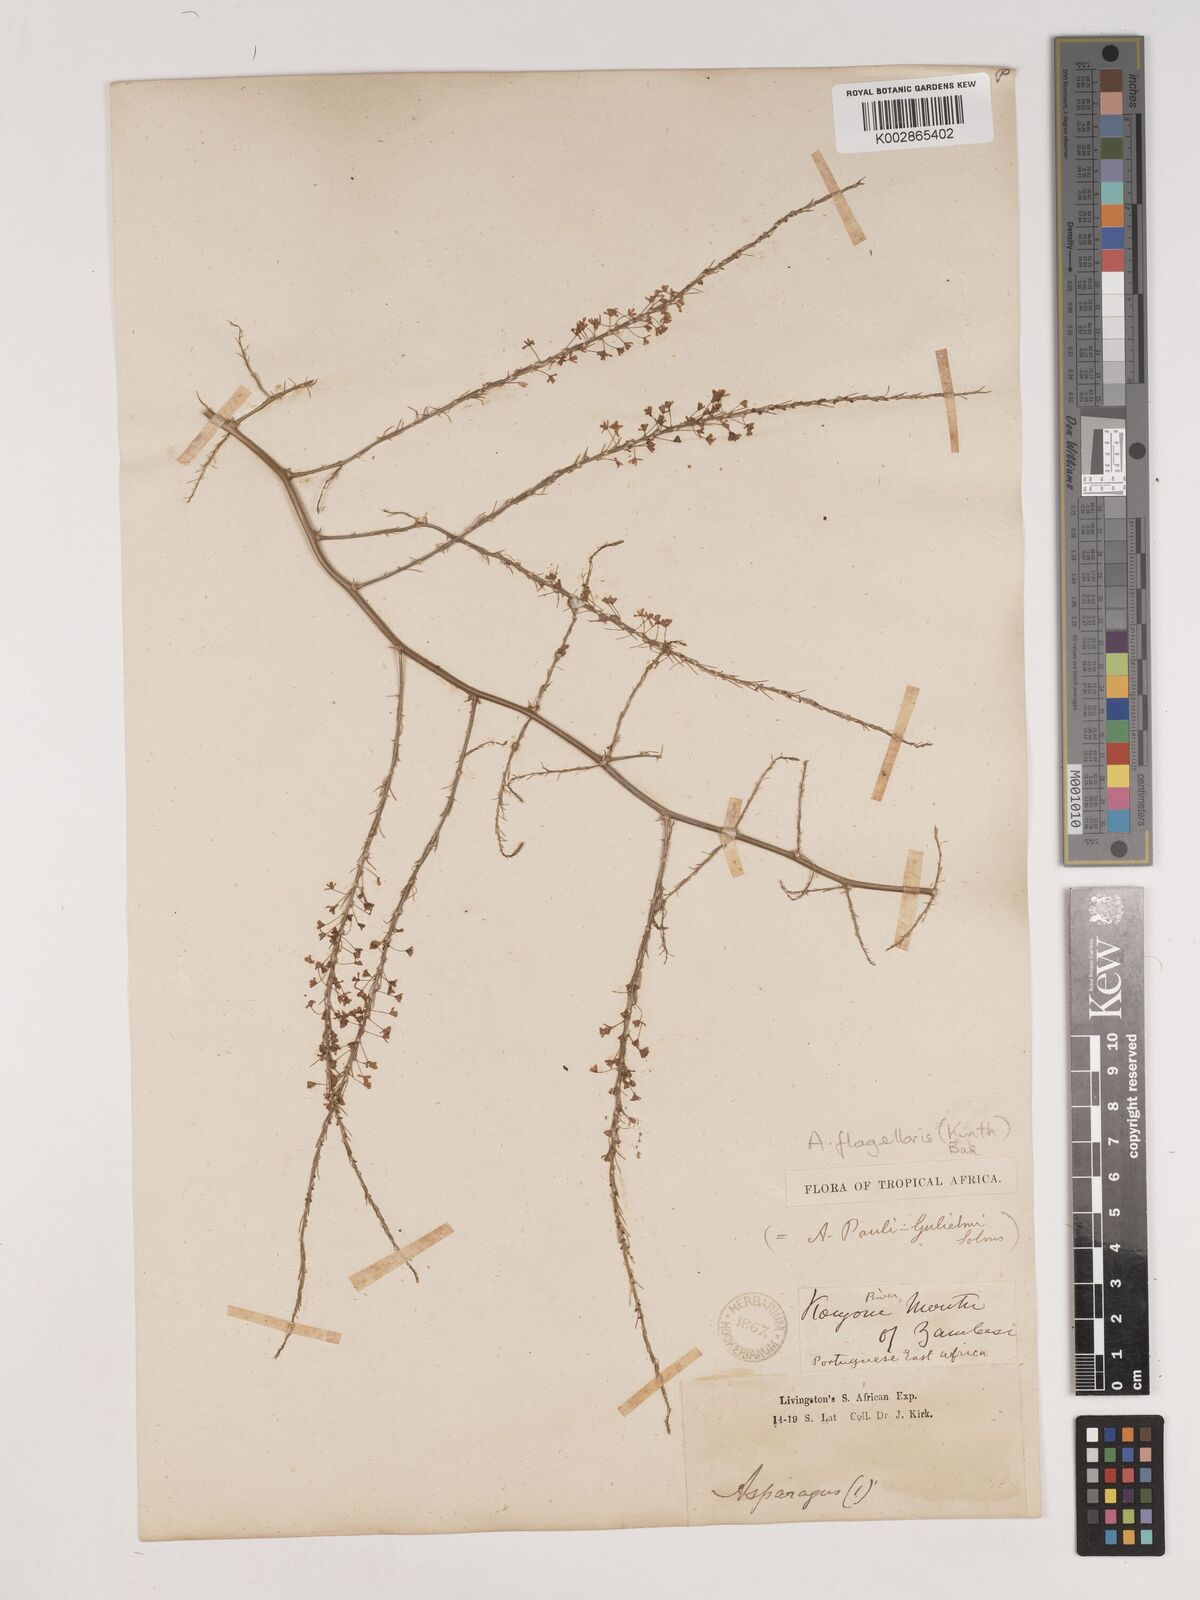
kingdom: Plantae
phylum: Tracheophyta
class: Liliopsida
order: Asparagales
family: Asparagaceae
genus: Asparagus
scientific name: Asparagus flagellaris
